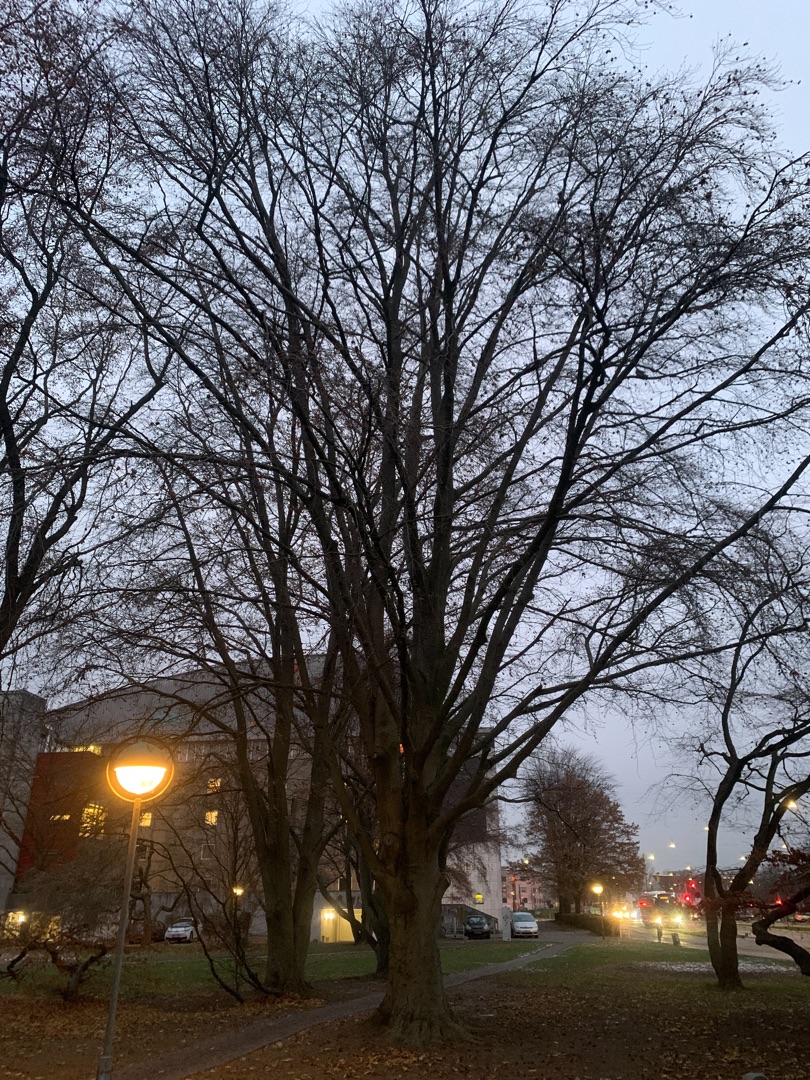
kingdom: Plantae
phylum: Tracheophyta
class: Magnoliopsida
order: Fagales
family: Fagaceae
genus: Fagus
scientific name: Fagus sylvatica
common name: Bøg
